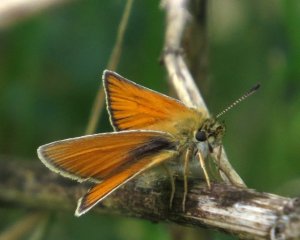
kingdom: Animalia
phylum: Arthropoda
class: Insecta
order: Lepidoptera
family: Hesperiidae
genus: Thymelicus
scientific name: Thymelicus lineola
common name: European Skipper
